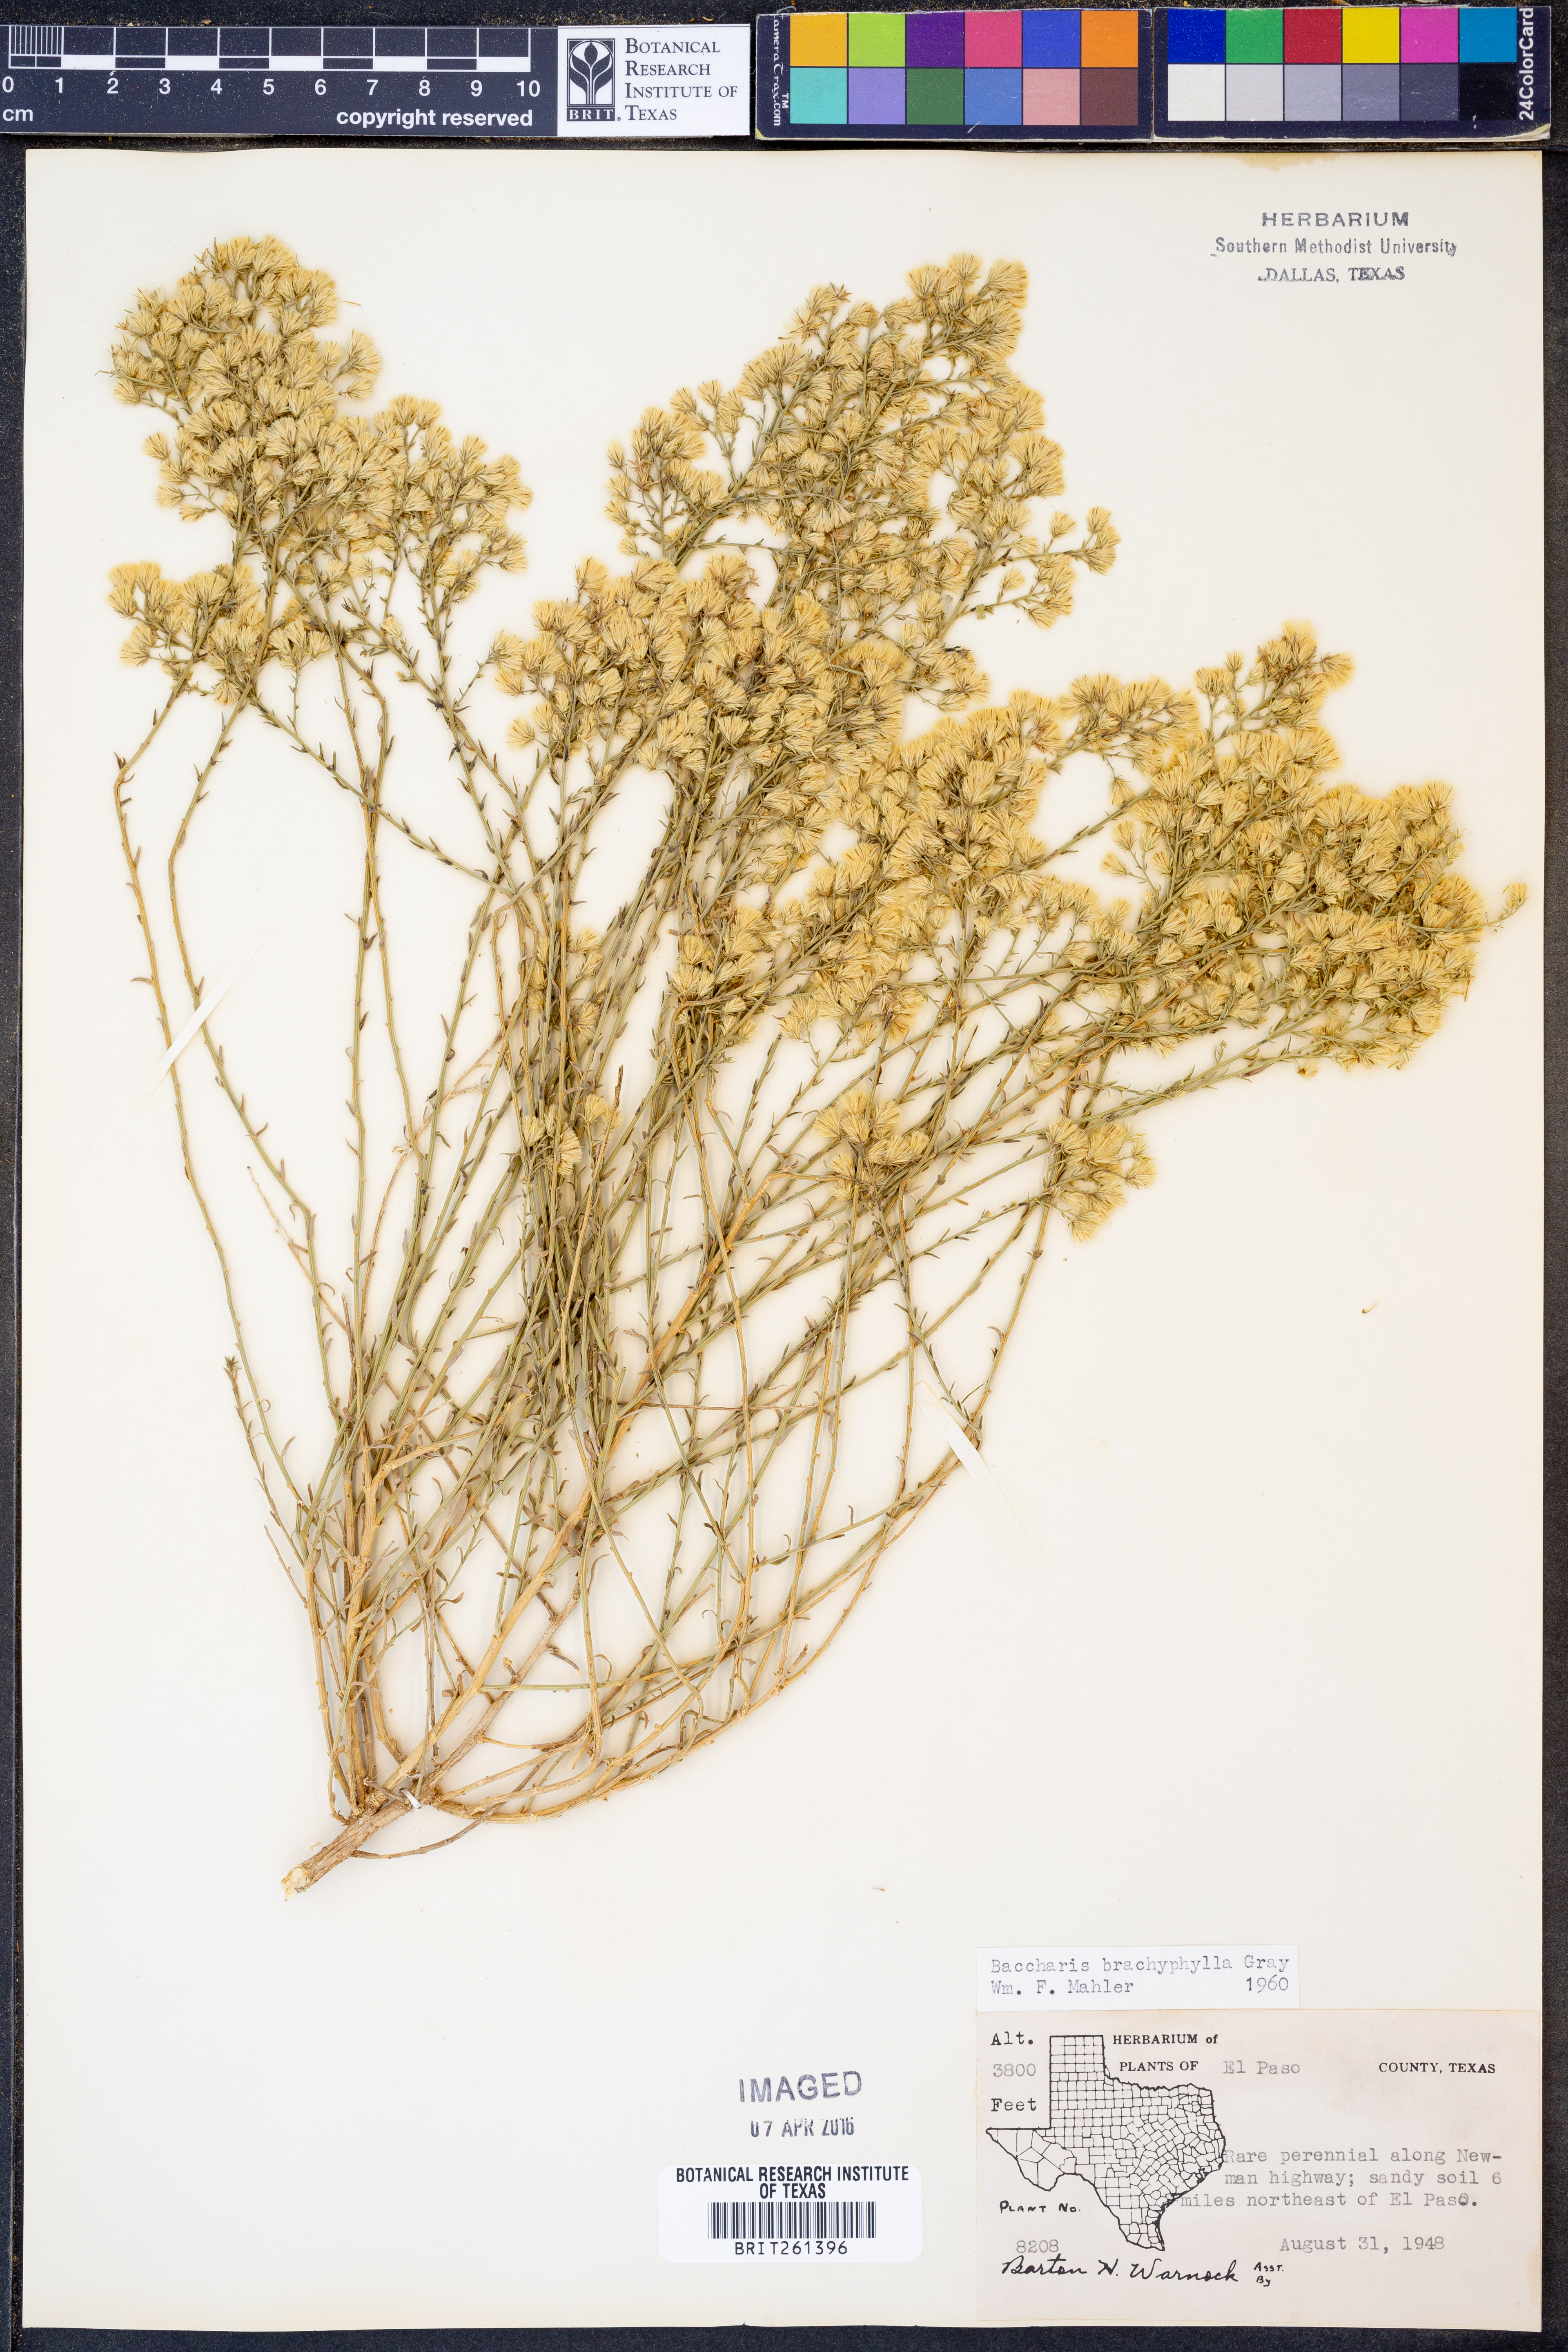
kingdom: Plantae
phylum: Tracheophyta
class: Magnoliopsida
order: Asterales
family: Asteraceae
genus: Baccharis
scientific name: Baccharis brachyphylla
